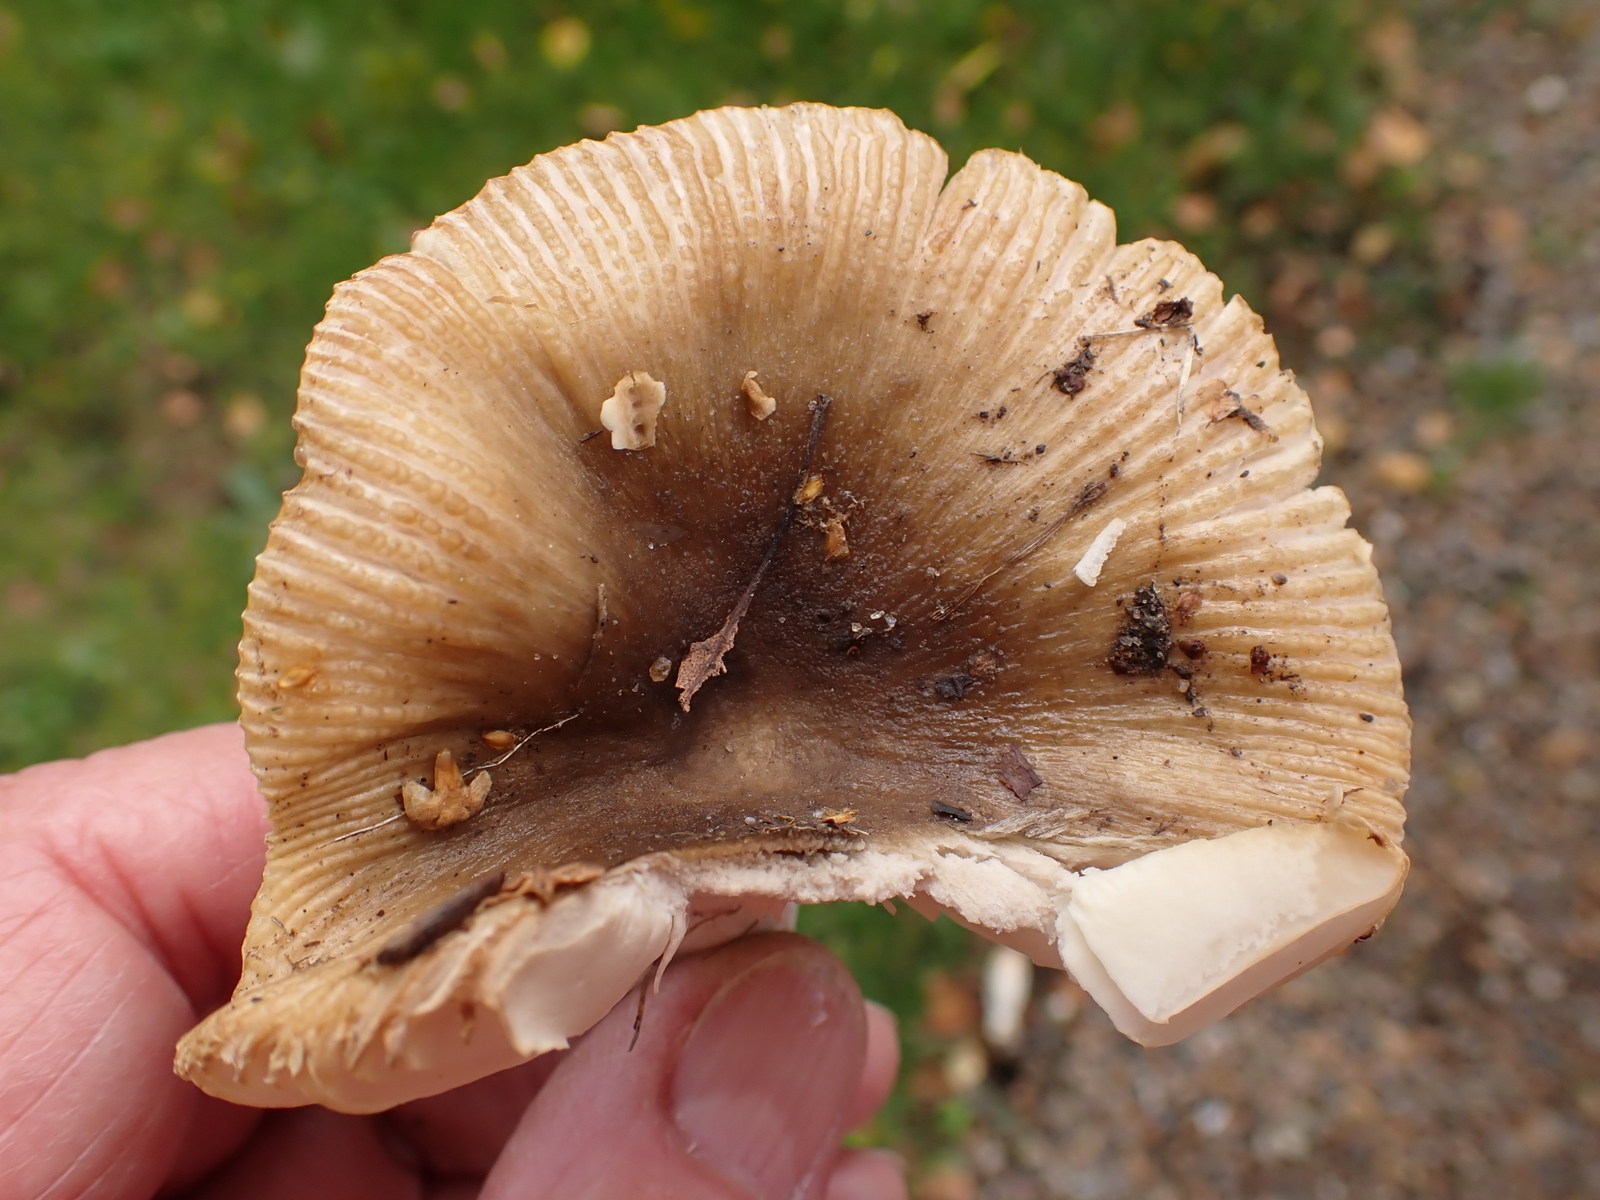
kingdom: Fungi
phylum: Basidiomycota
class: Agaricomycetes
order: Russulales
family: Russulaceae
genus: Russula
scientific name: Russula recondita
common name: mild kam-skørhat
